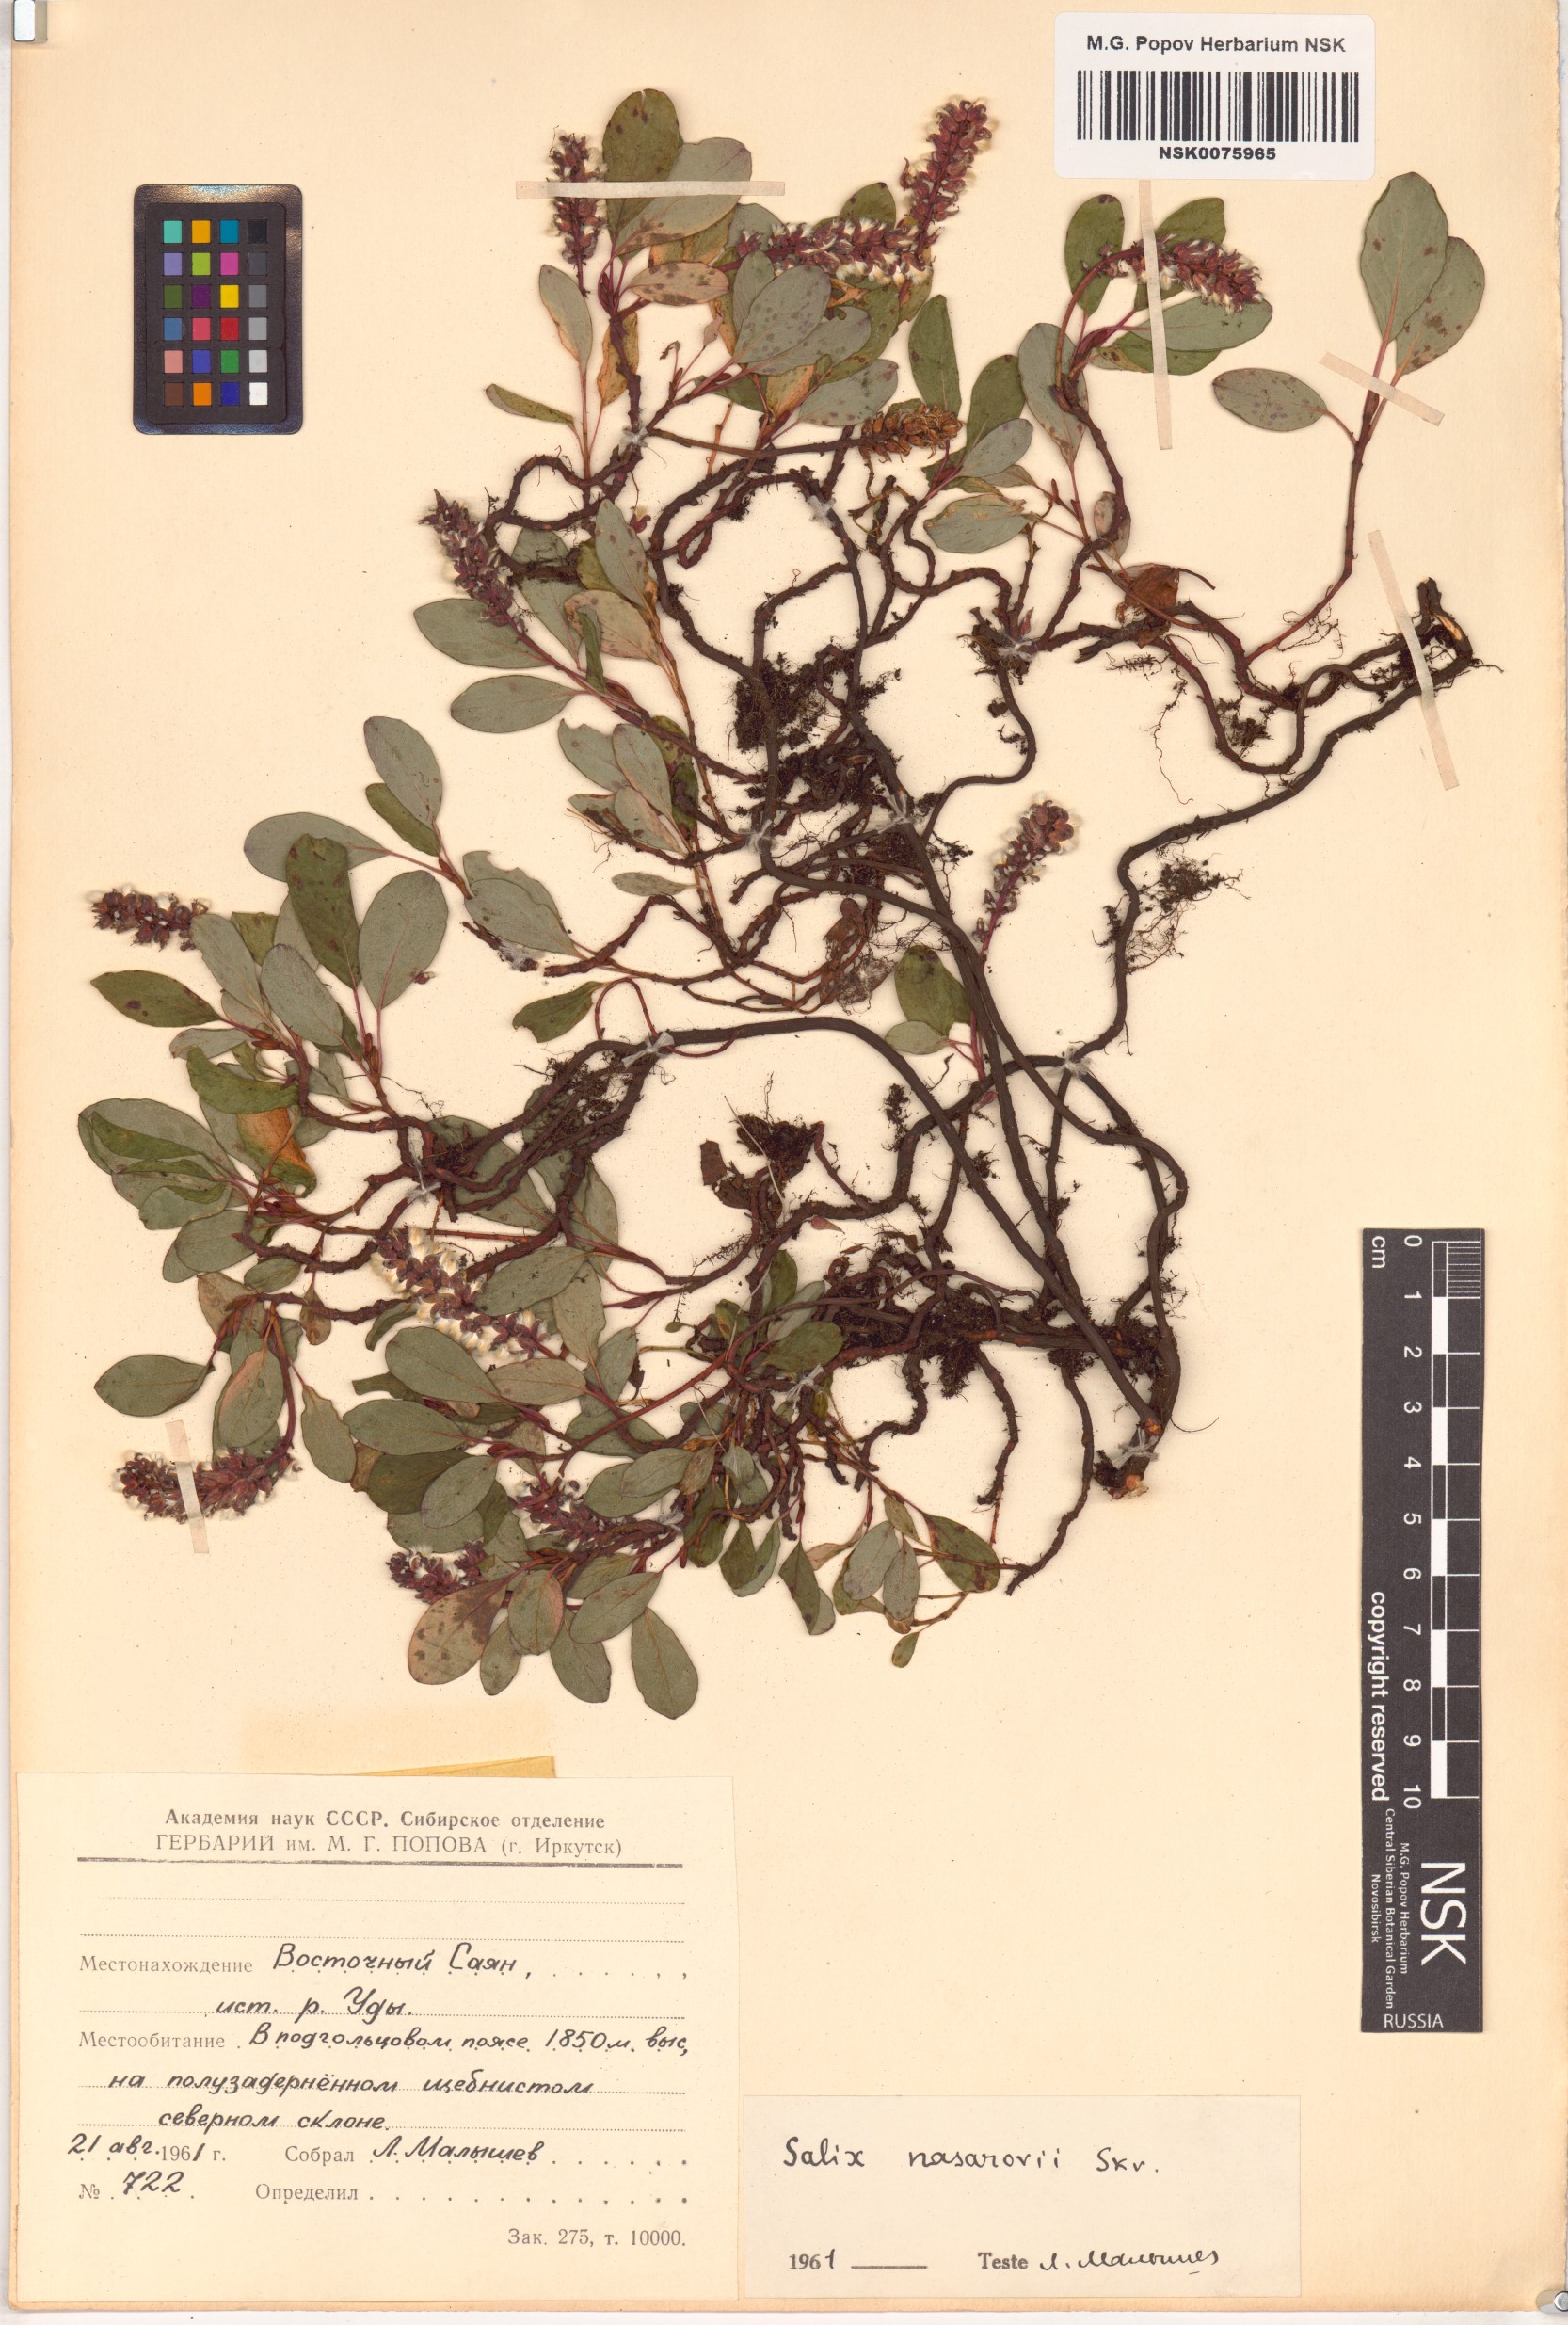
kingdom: Plantae
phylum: Tracheophyta
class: Magnoliopsida
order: Malpighiales
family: Salicaceae
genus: Salix
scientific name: Salix nasarovii
